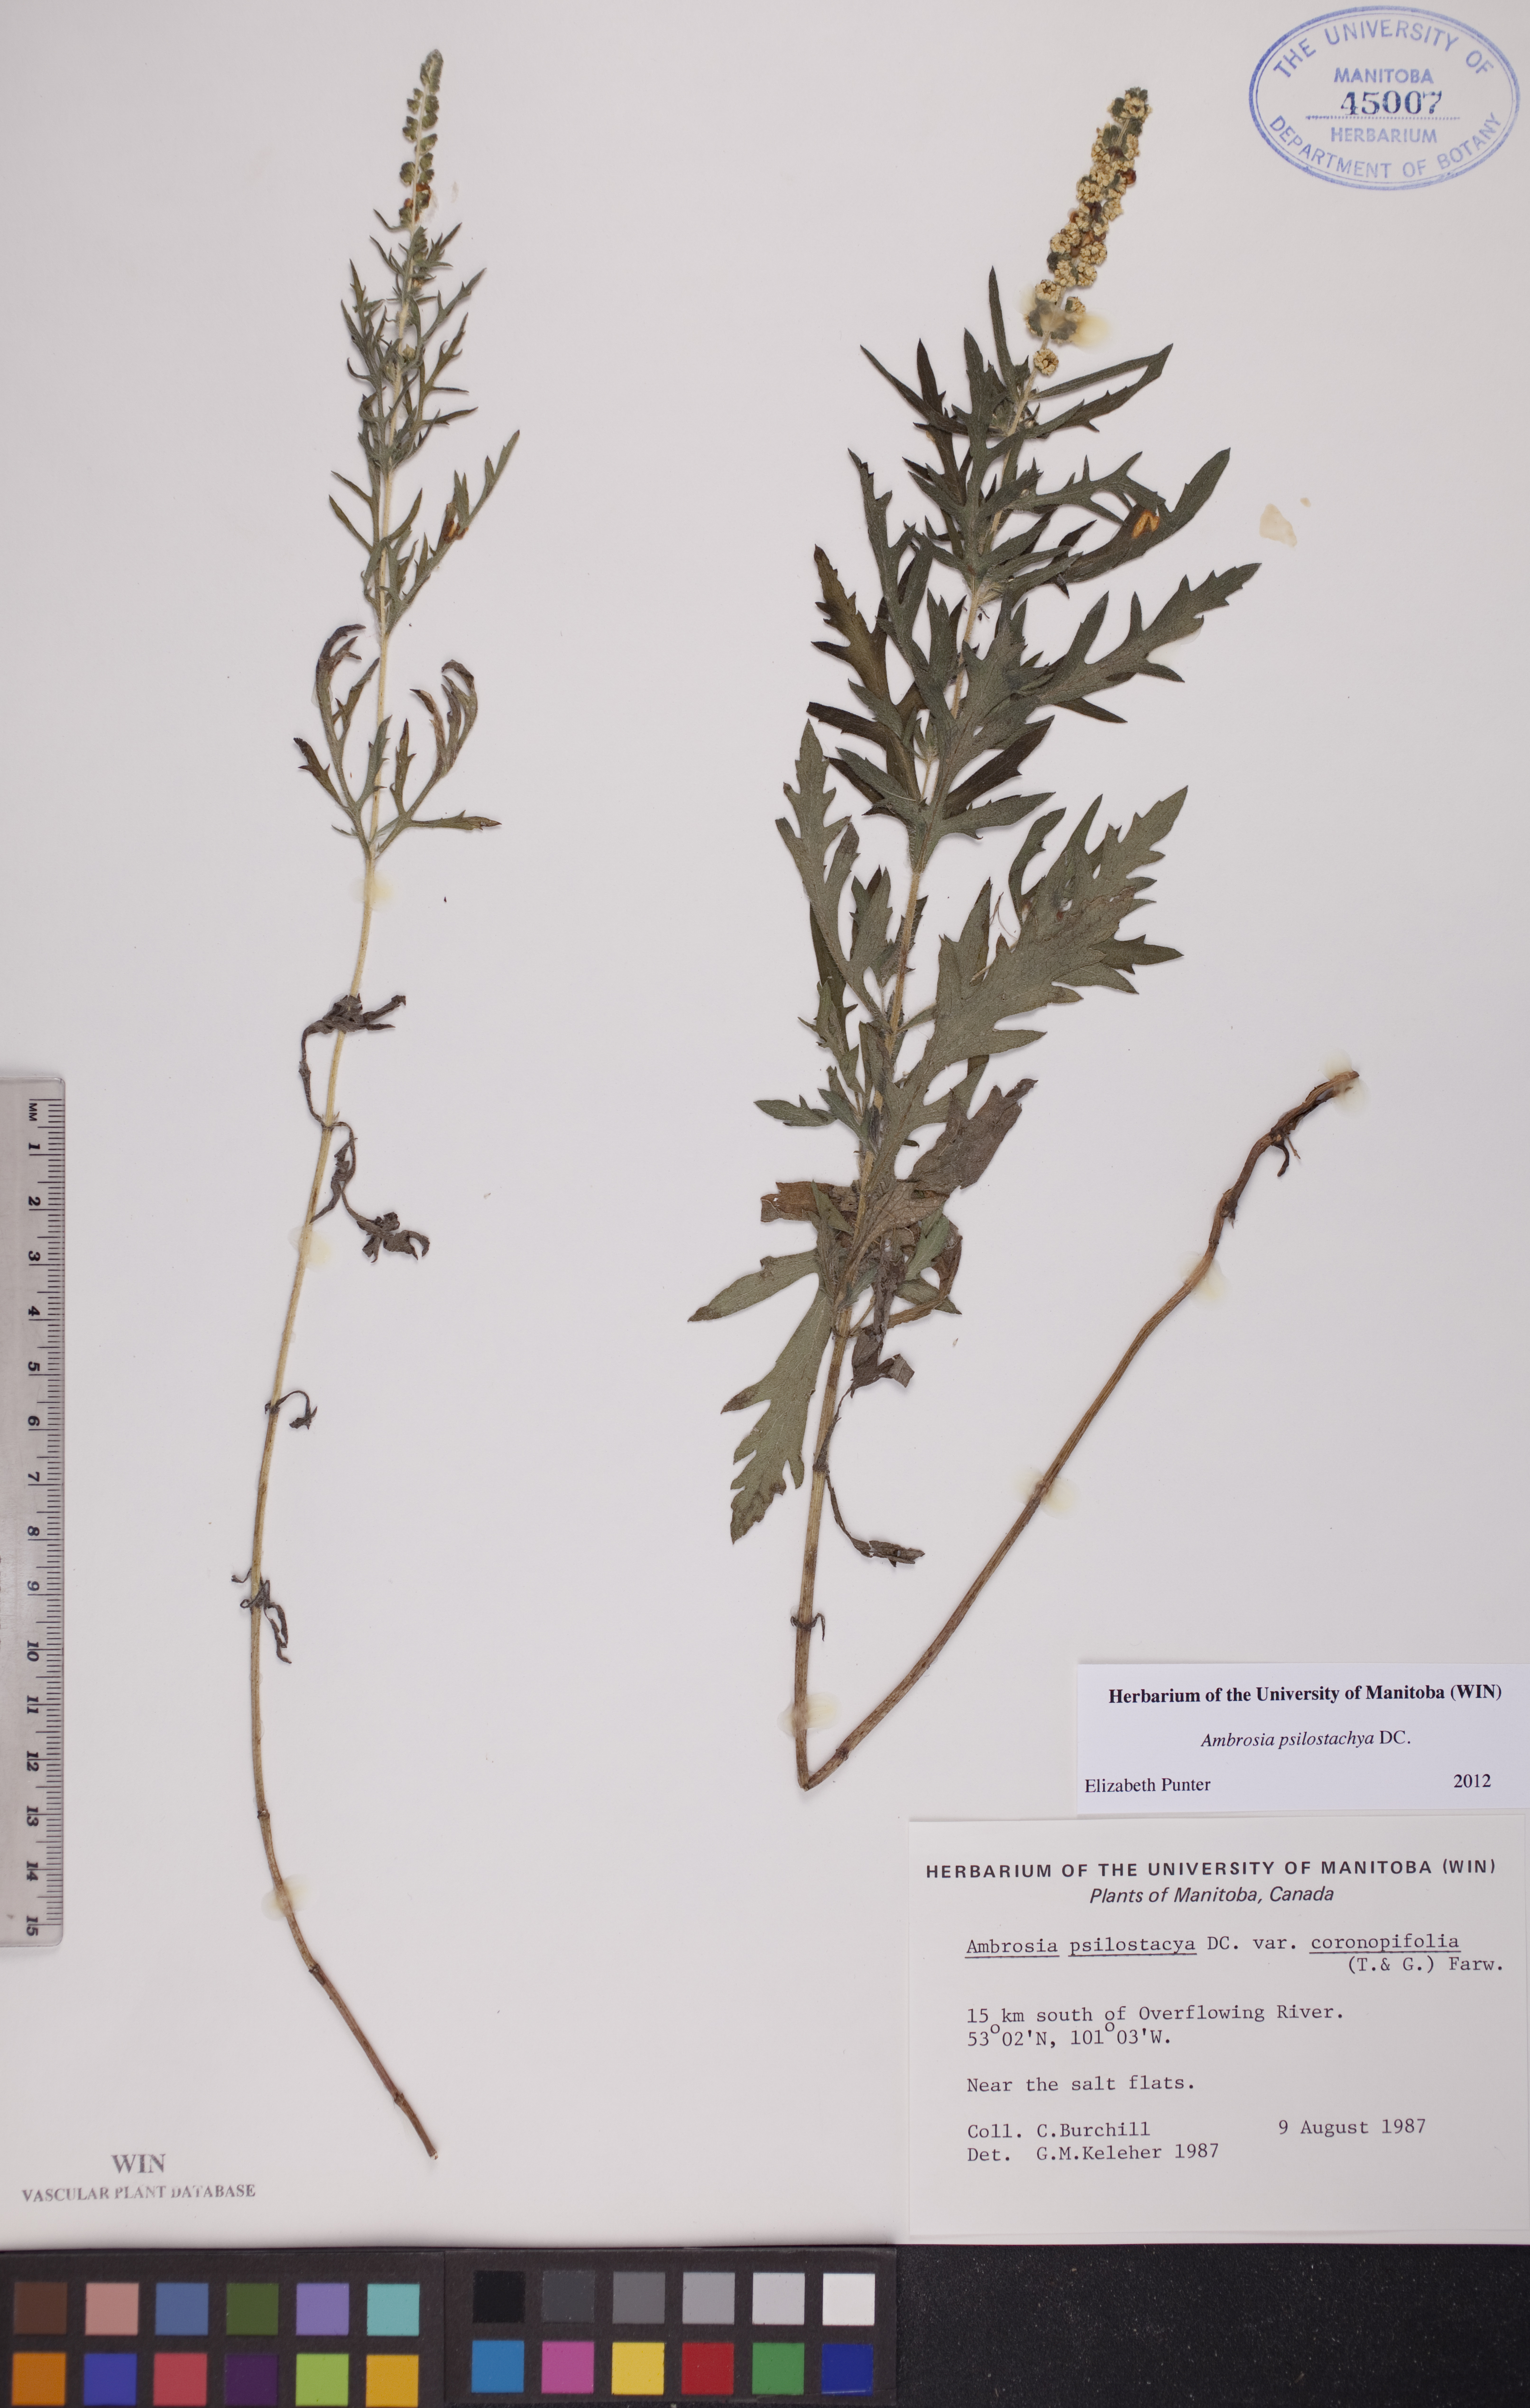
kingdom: Plantae
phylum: Tracheophyta
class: Magnoliopsida
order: Asterales
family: Asteraceae
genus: Ambrosia
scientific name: Ambrosia psilostachya
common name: Perennial ragweed
